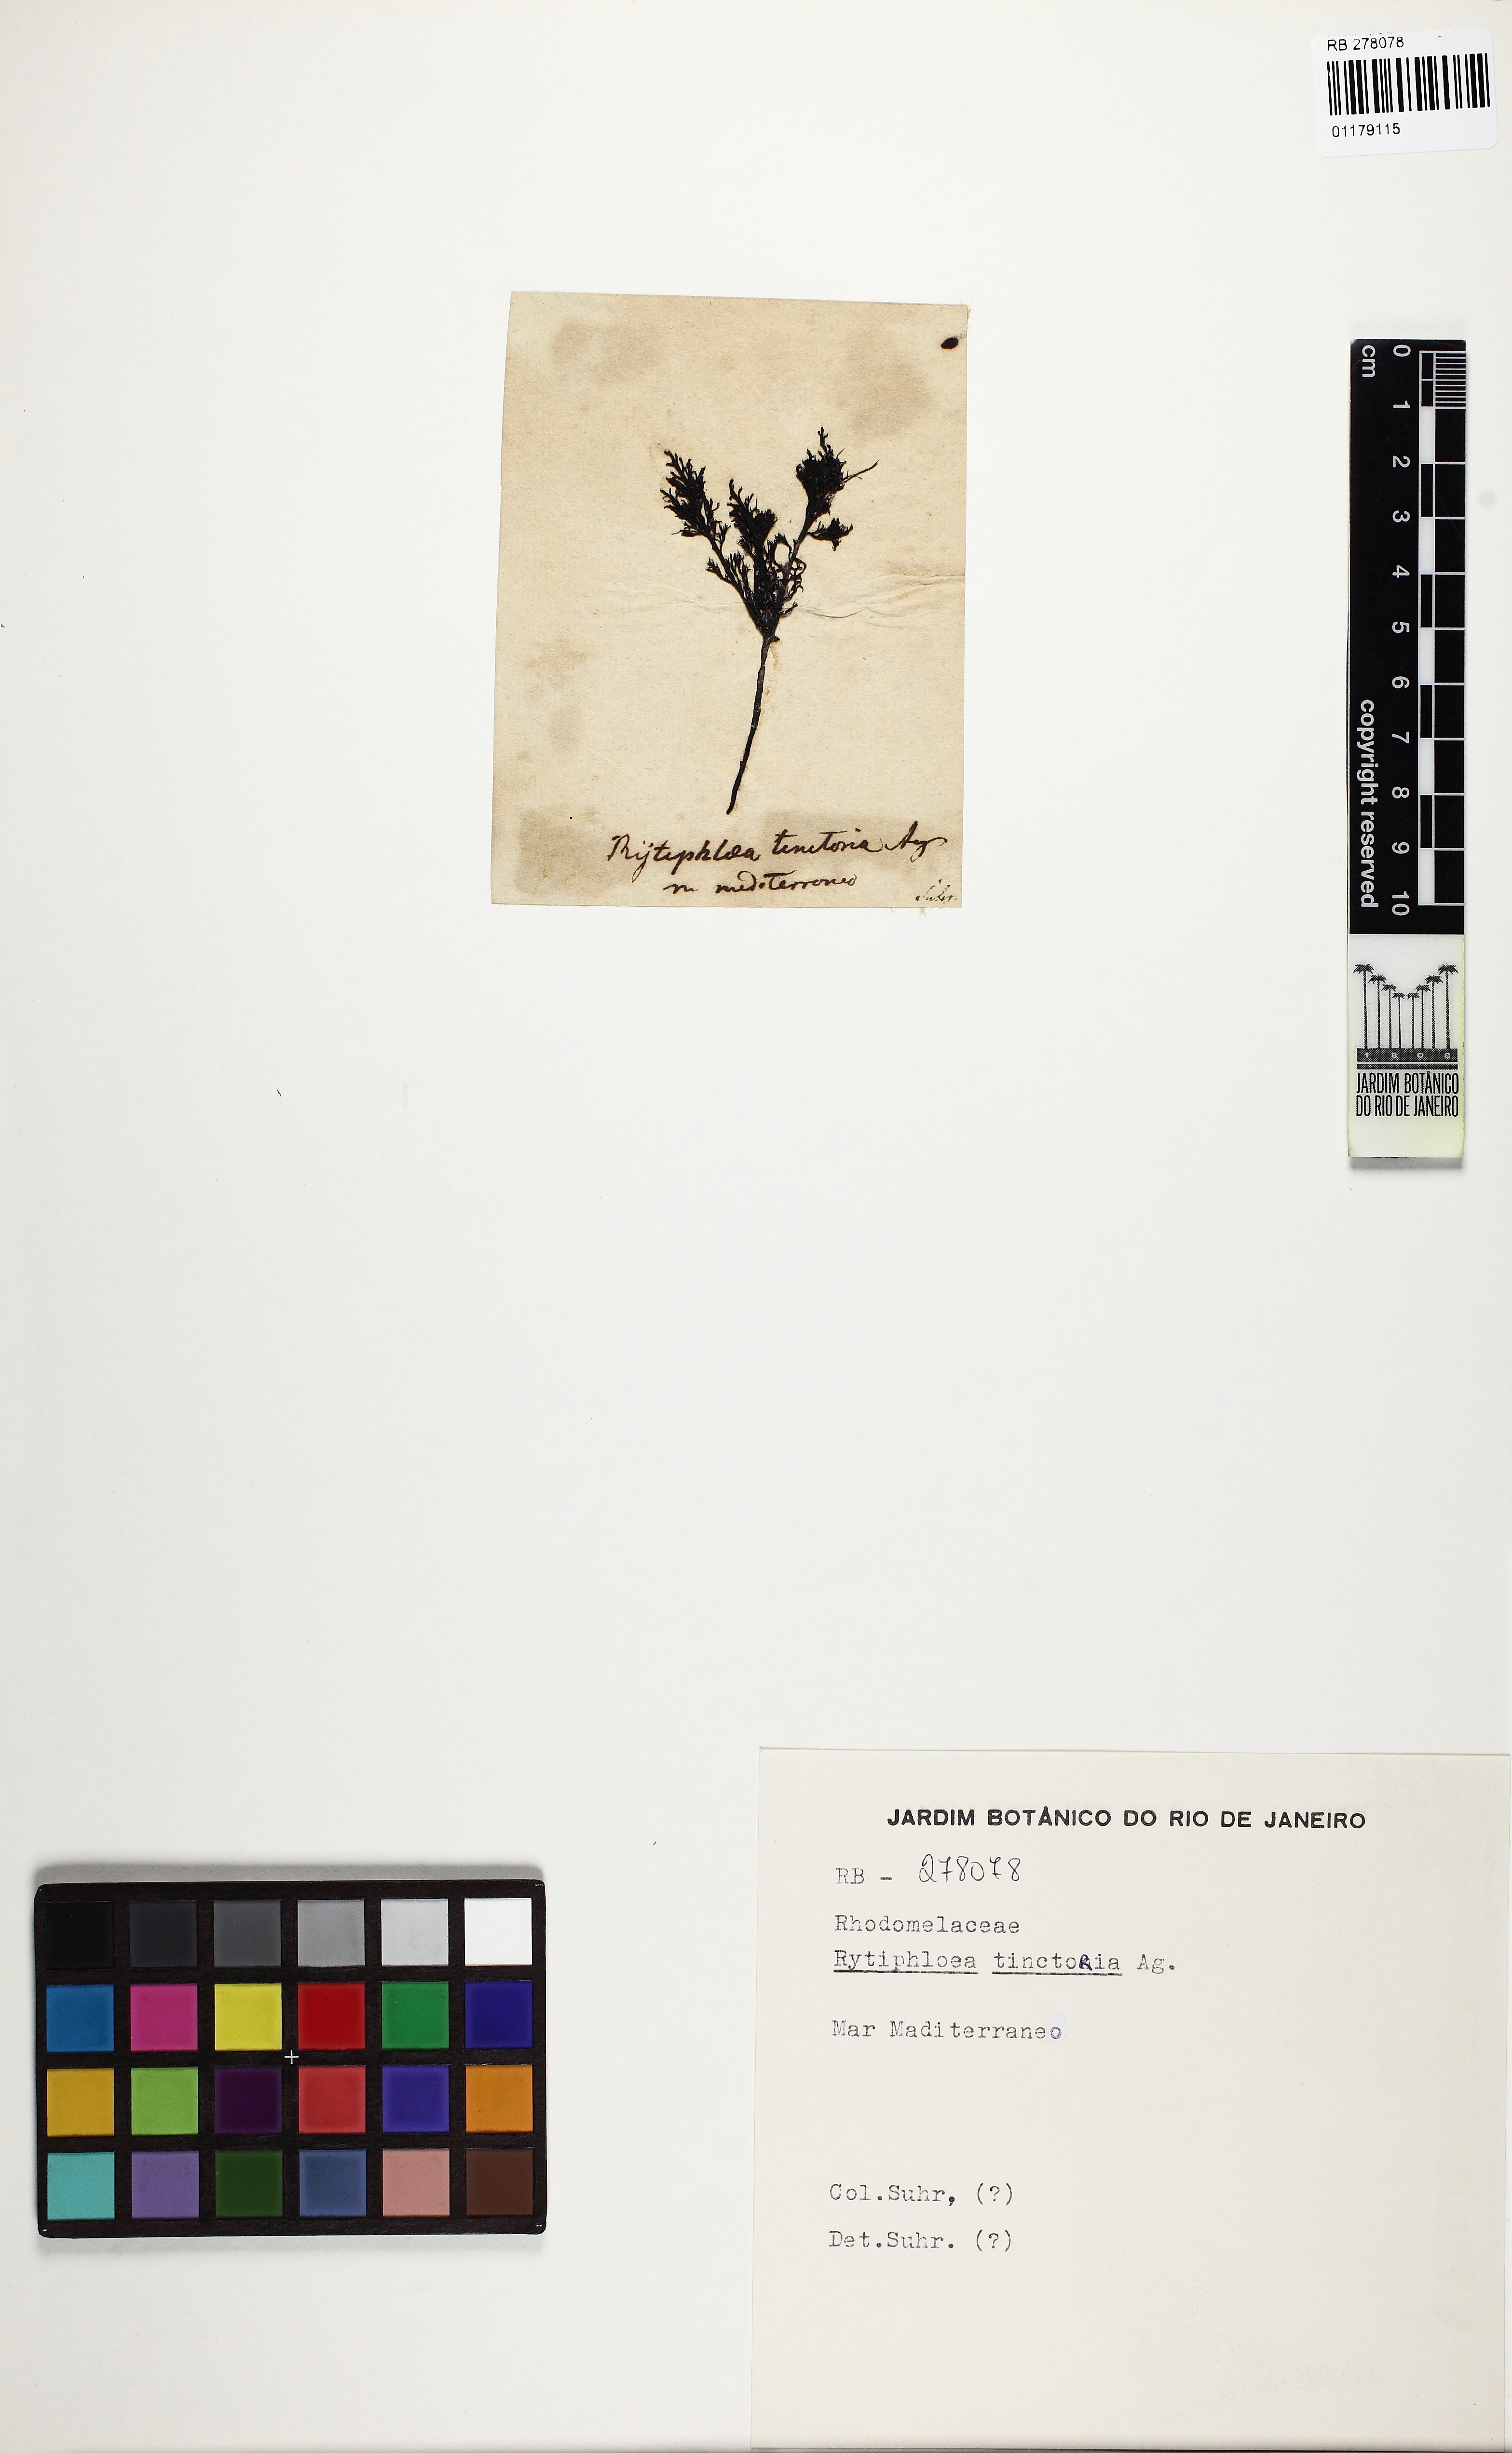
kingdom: Plantae
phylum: Rhodophyta
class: Florideophyceae
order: Ceramiales
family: Rhodomelaceae
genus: Rytiphlaea
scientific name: Rytiphlaea tinctoria
